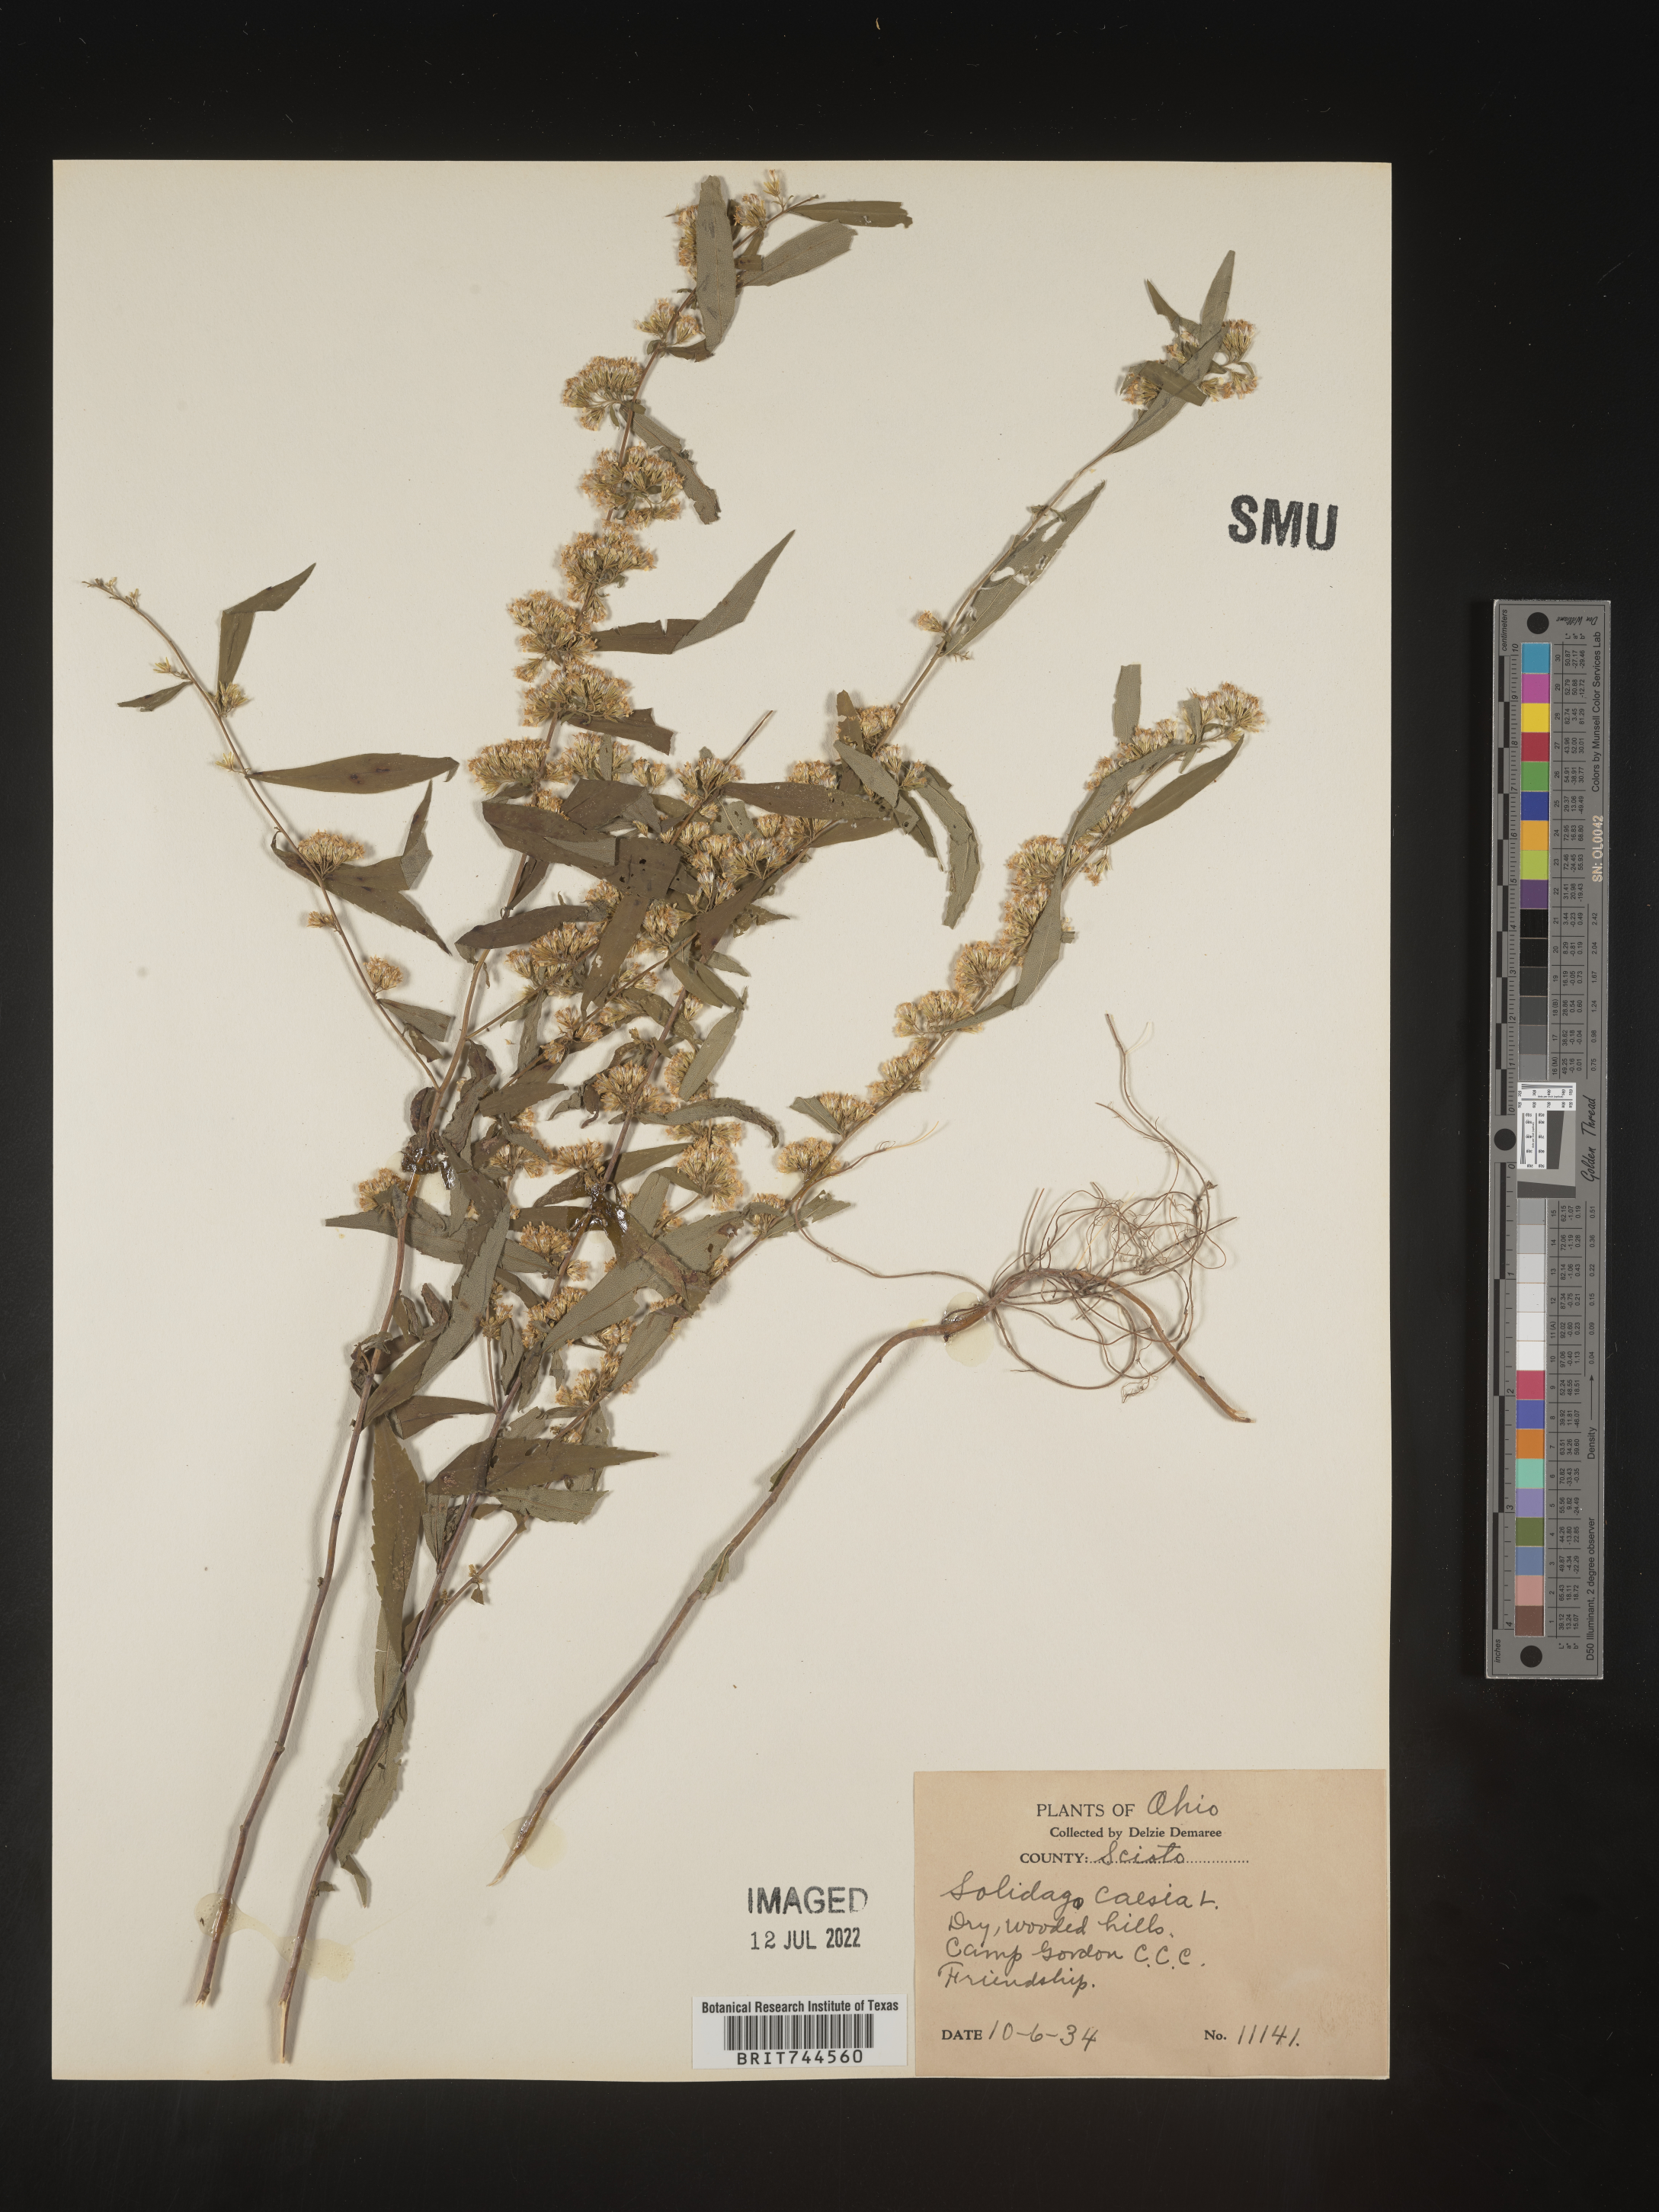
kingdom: Plantae
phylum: Tracheophyta
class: Magnoliopsida
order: Asterales
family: Asteraceae
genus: Solidago
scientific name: Solidago caesia
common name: Woodland goldenrod
